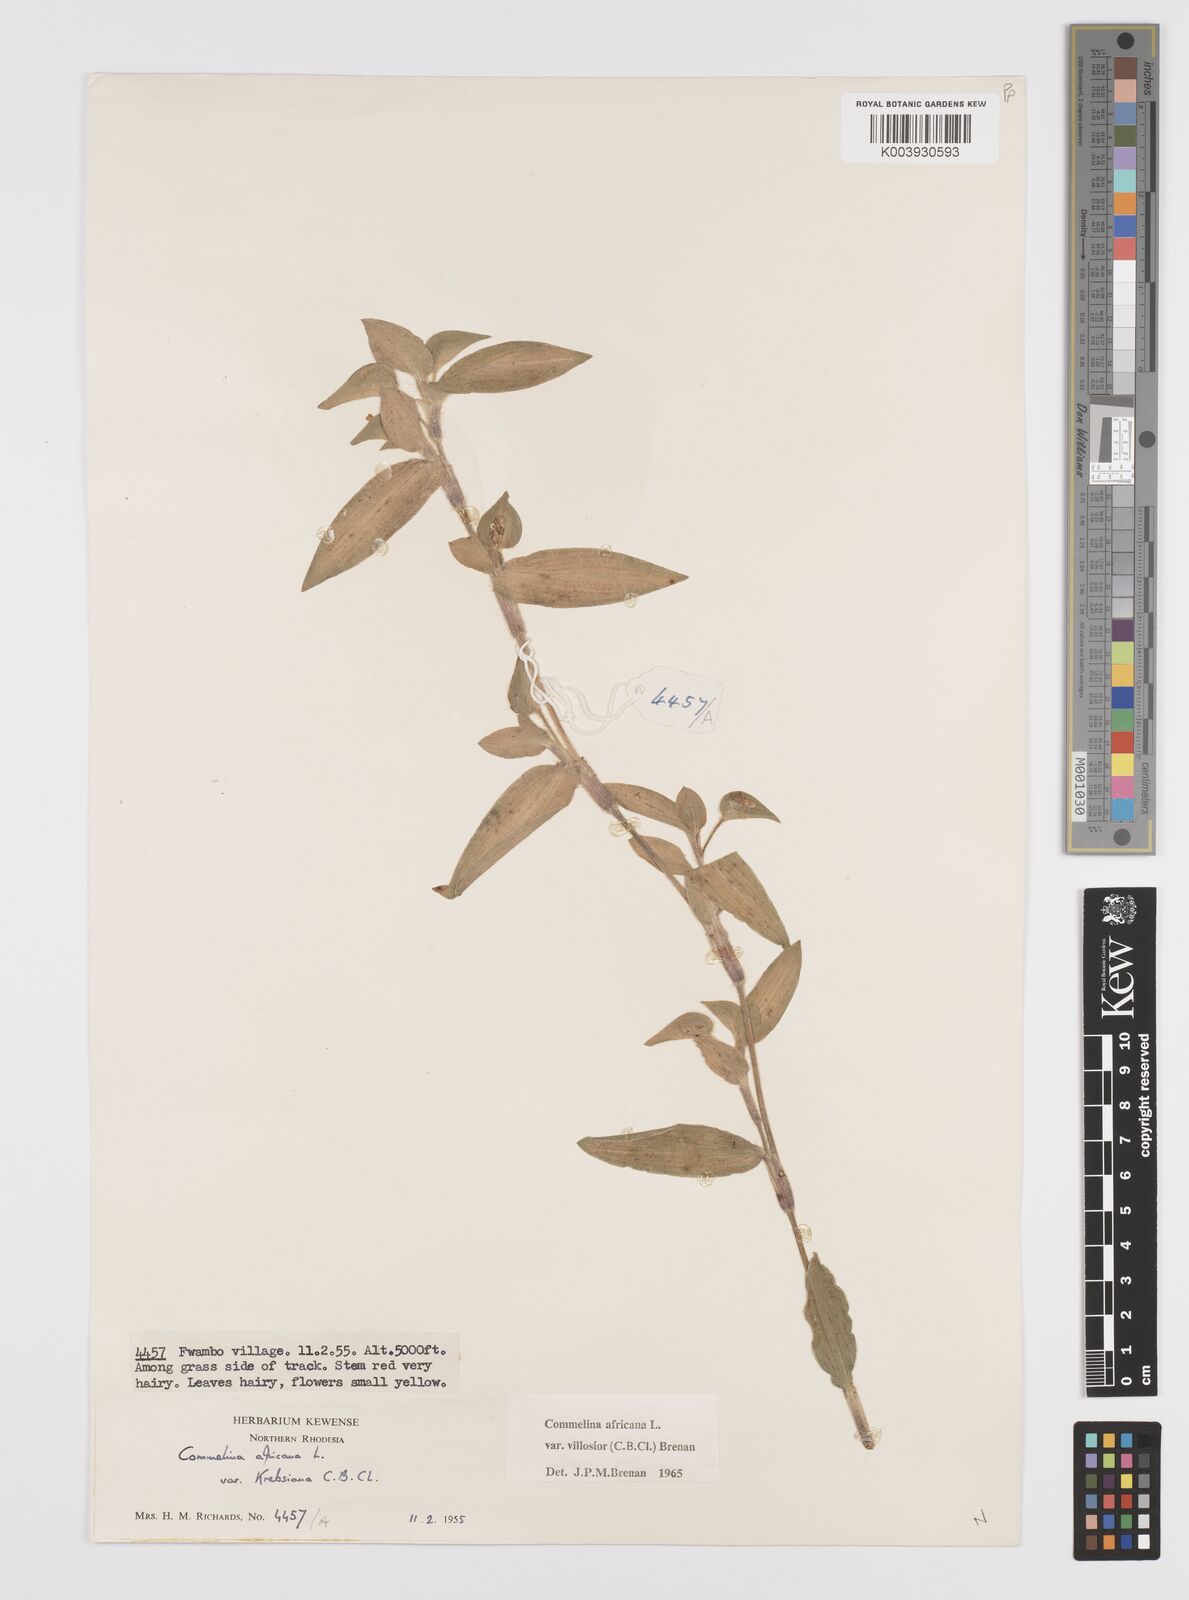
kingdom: Plantae
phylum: Tracheophyta
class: Liliopsida
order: Commelinales
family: Commelinaceae
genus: Commelina
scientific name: Commelina africana
